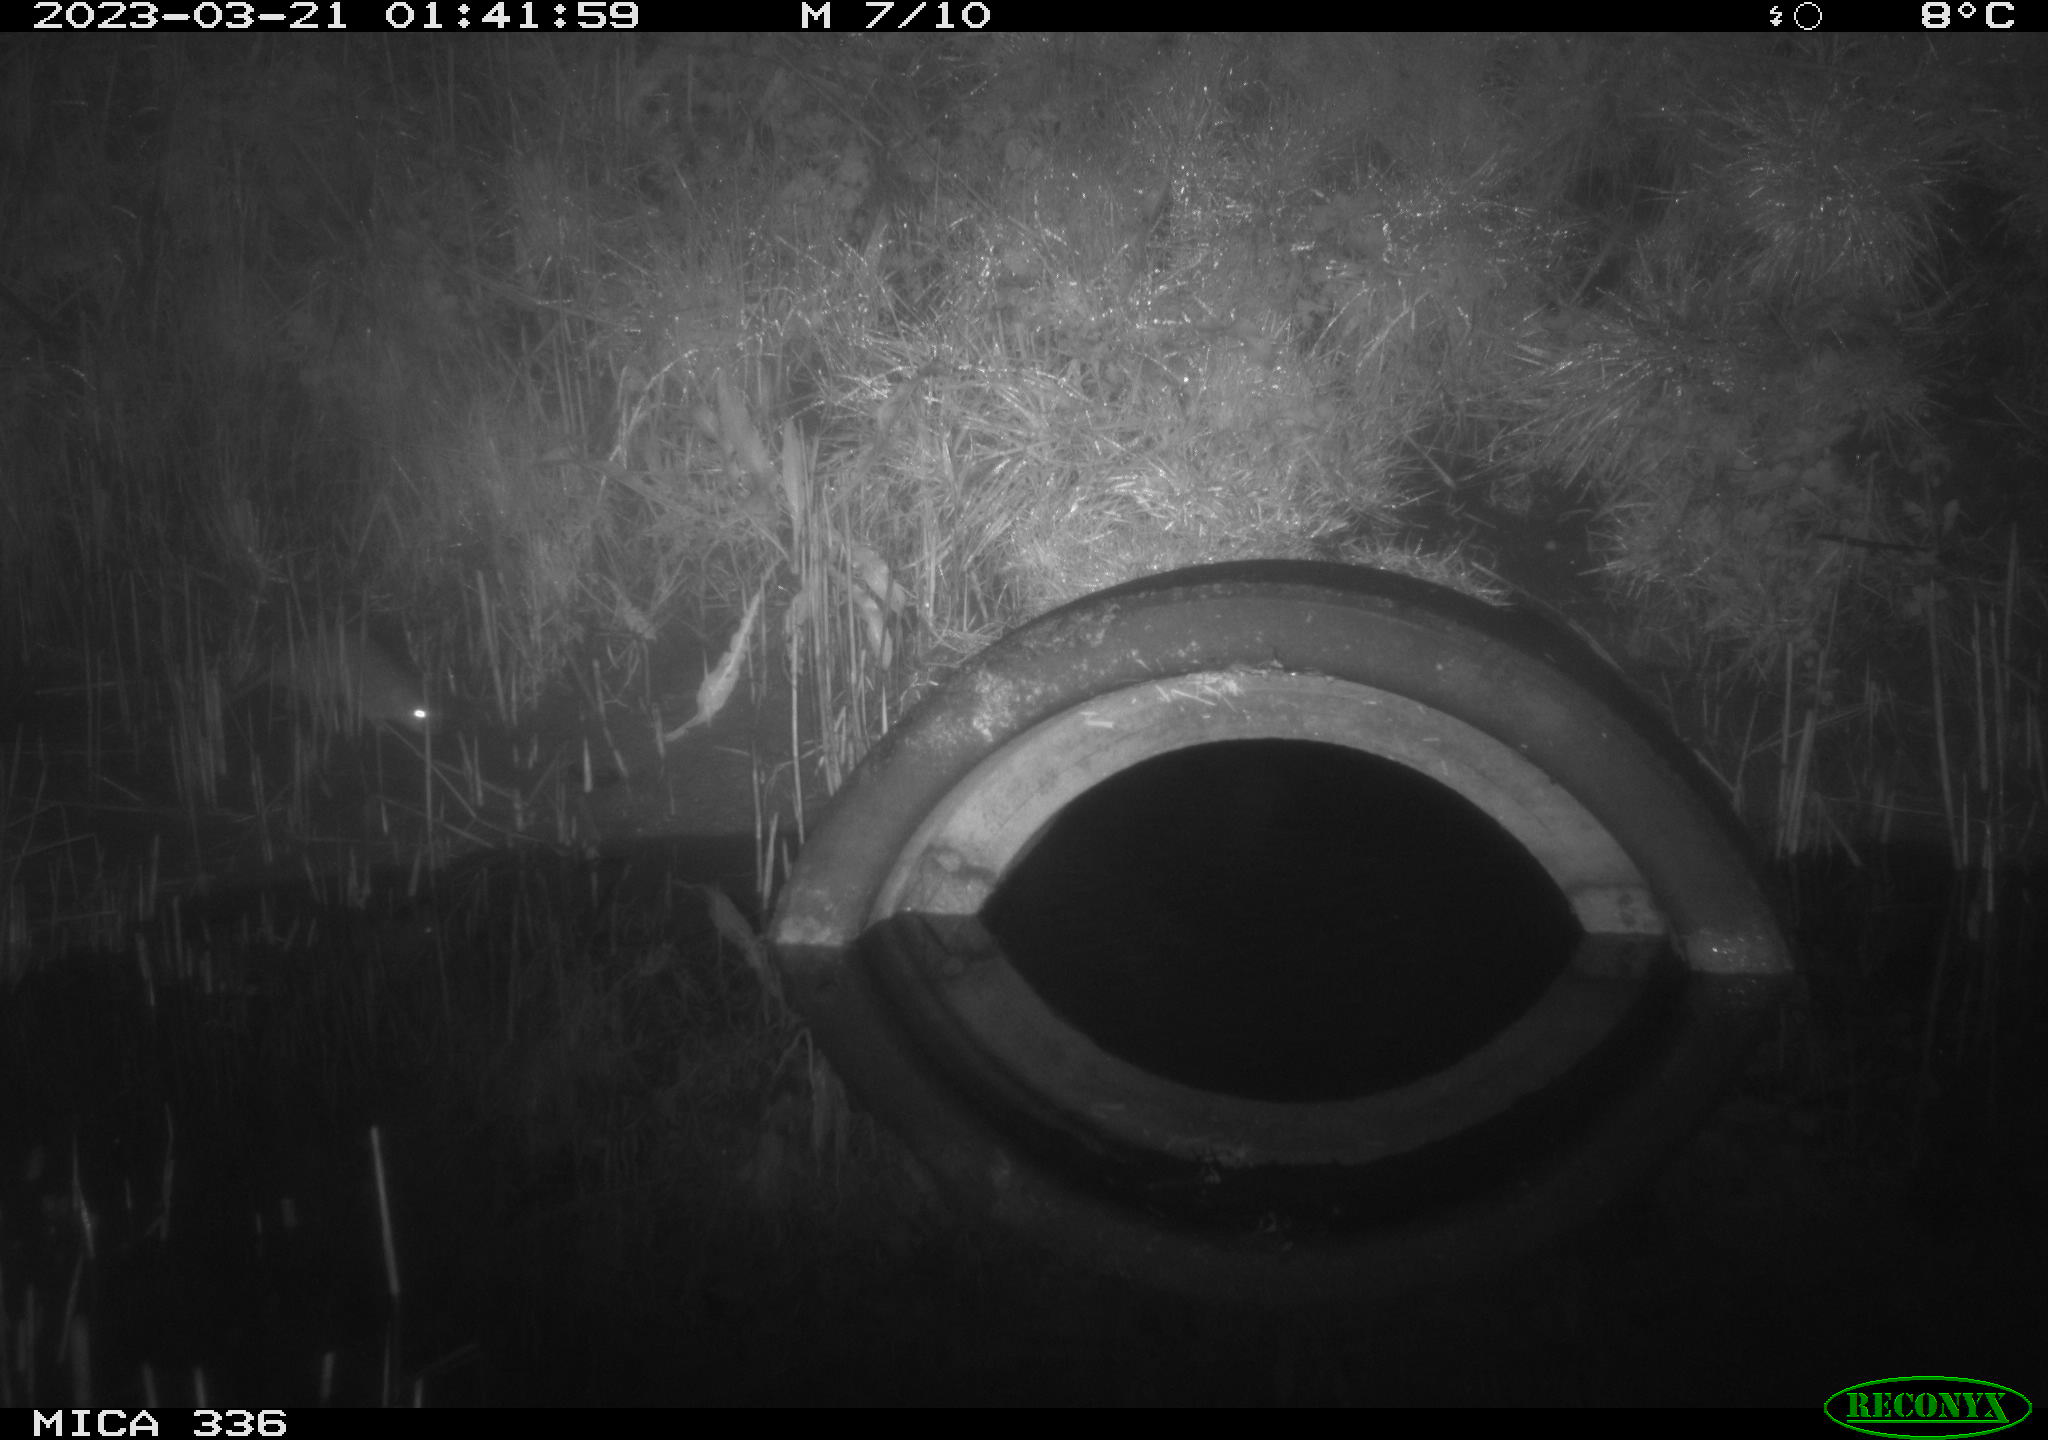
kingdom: Animalia
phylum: Chordata
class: Mammalia
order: Rodentia
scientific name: Rodentia
